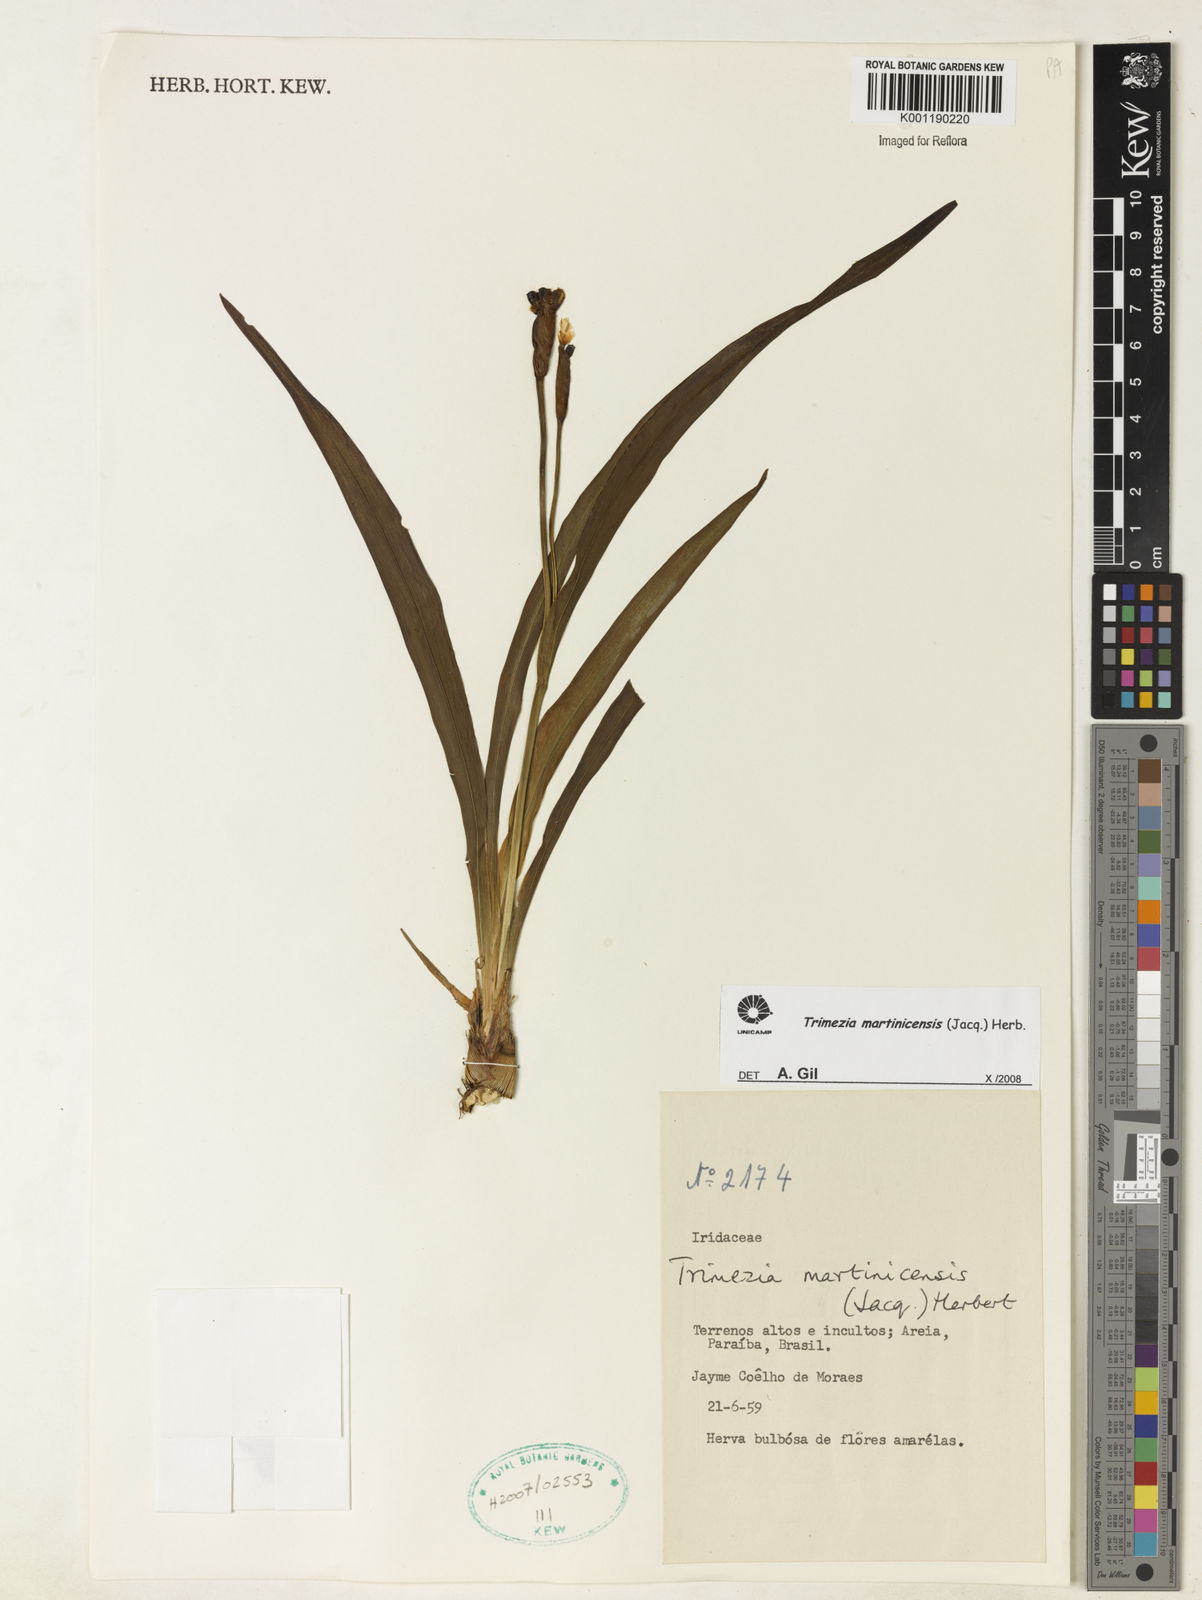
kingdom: Plantae
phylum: Tracheophyta
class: Liliopsida
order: Asparagales
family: Iridaceae
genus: Trimezia
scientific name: Trimezia martinicensis
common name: Martinique trimezia
